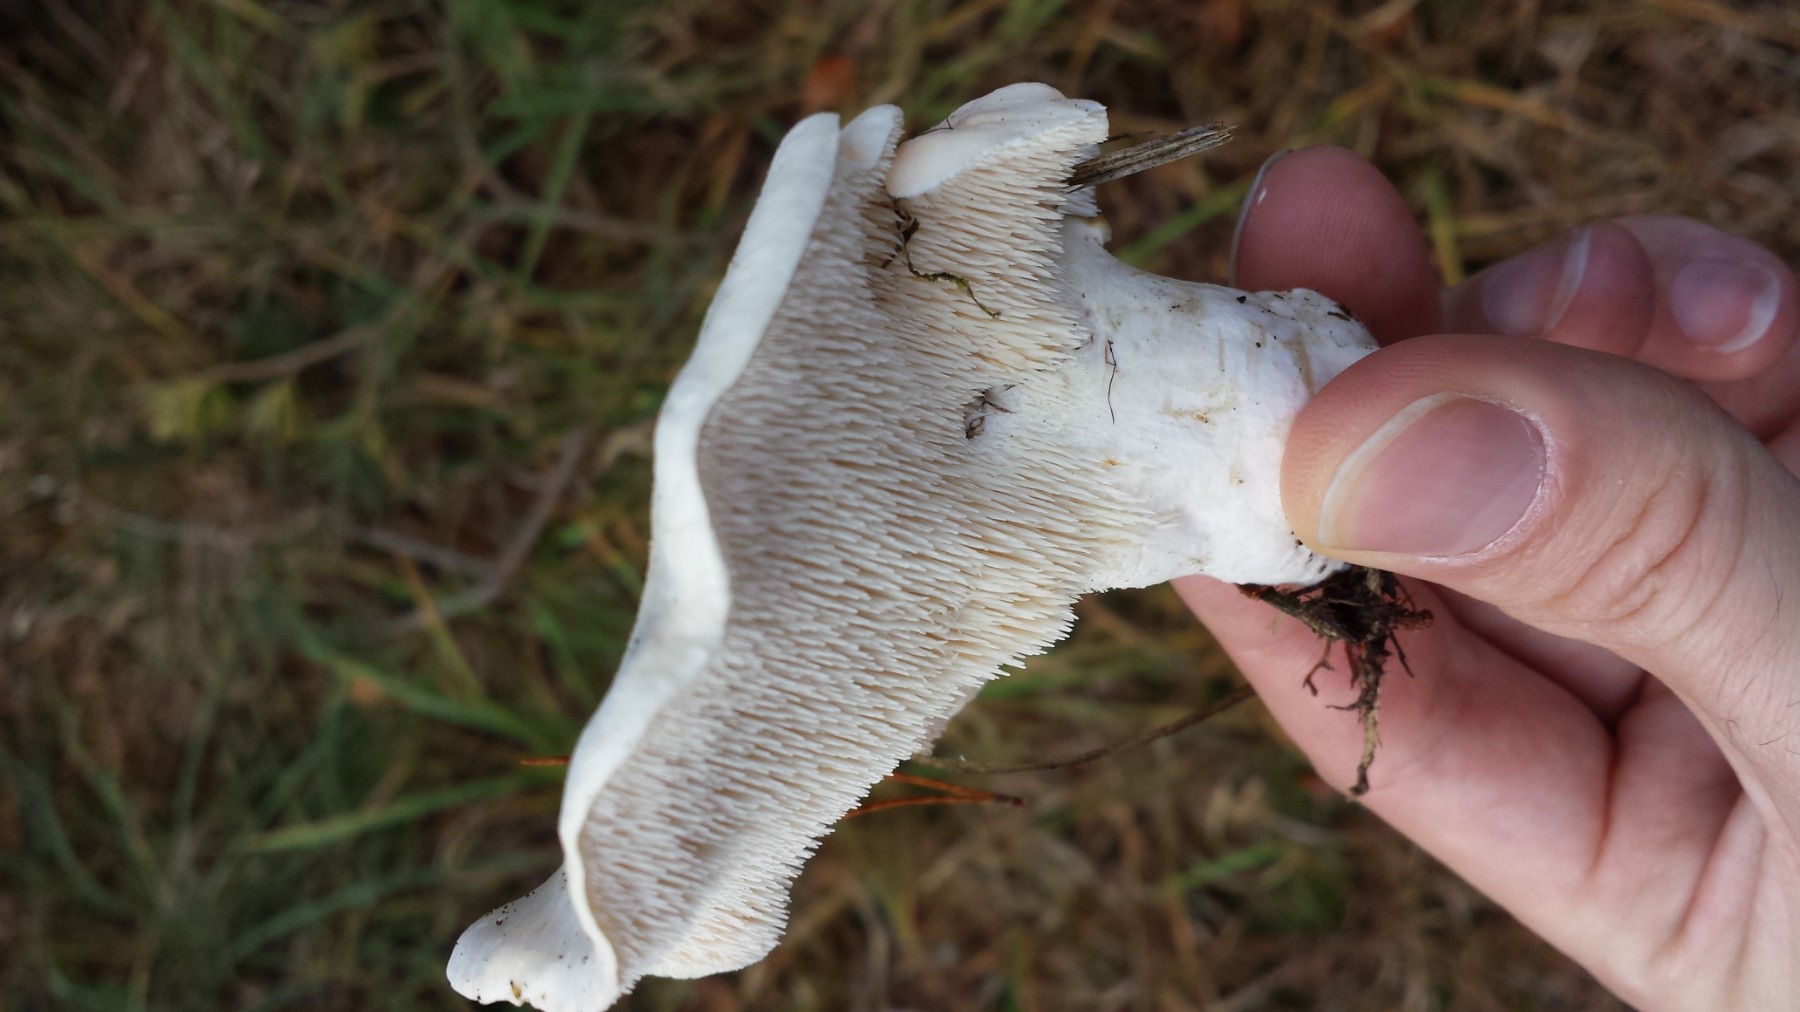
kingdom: Fungi
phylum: Basidiomycota
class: Agaricomycetes
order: Cantharellales
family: Hydnaceae
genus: Hydnum
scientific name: Hydnum repandum
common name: almindelig pigsvamp
